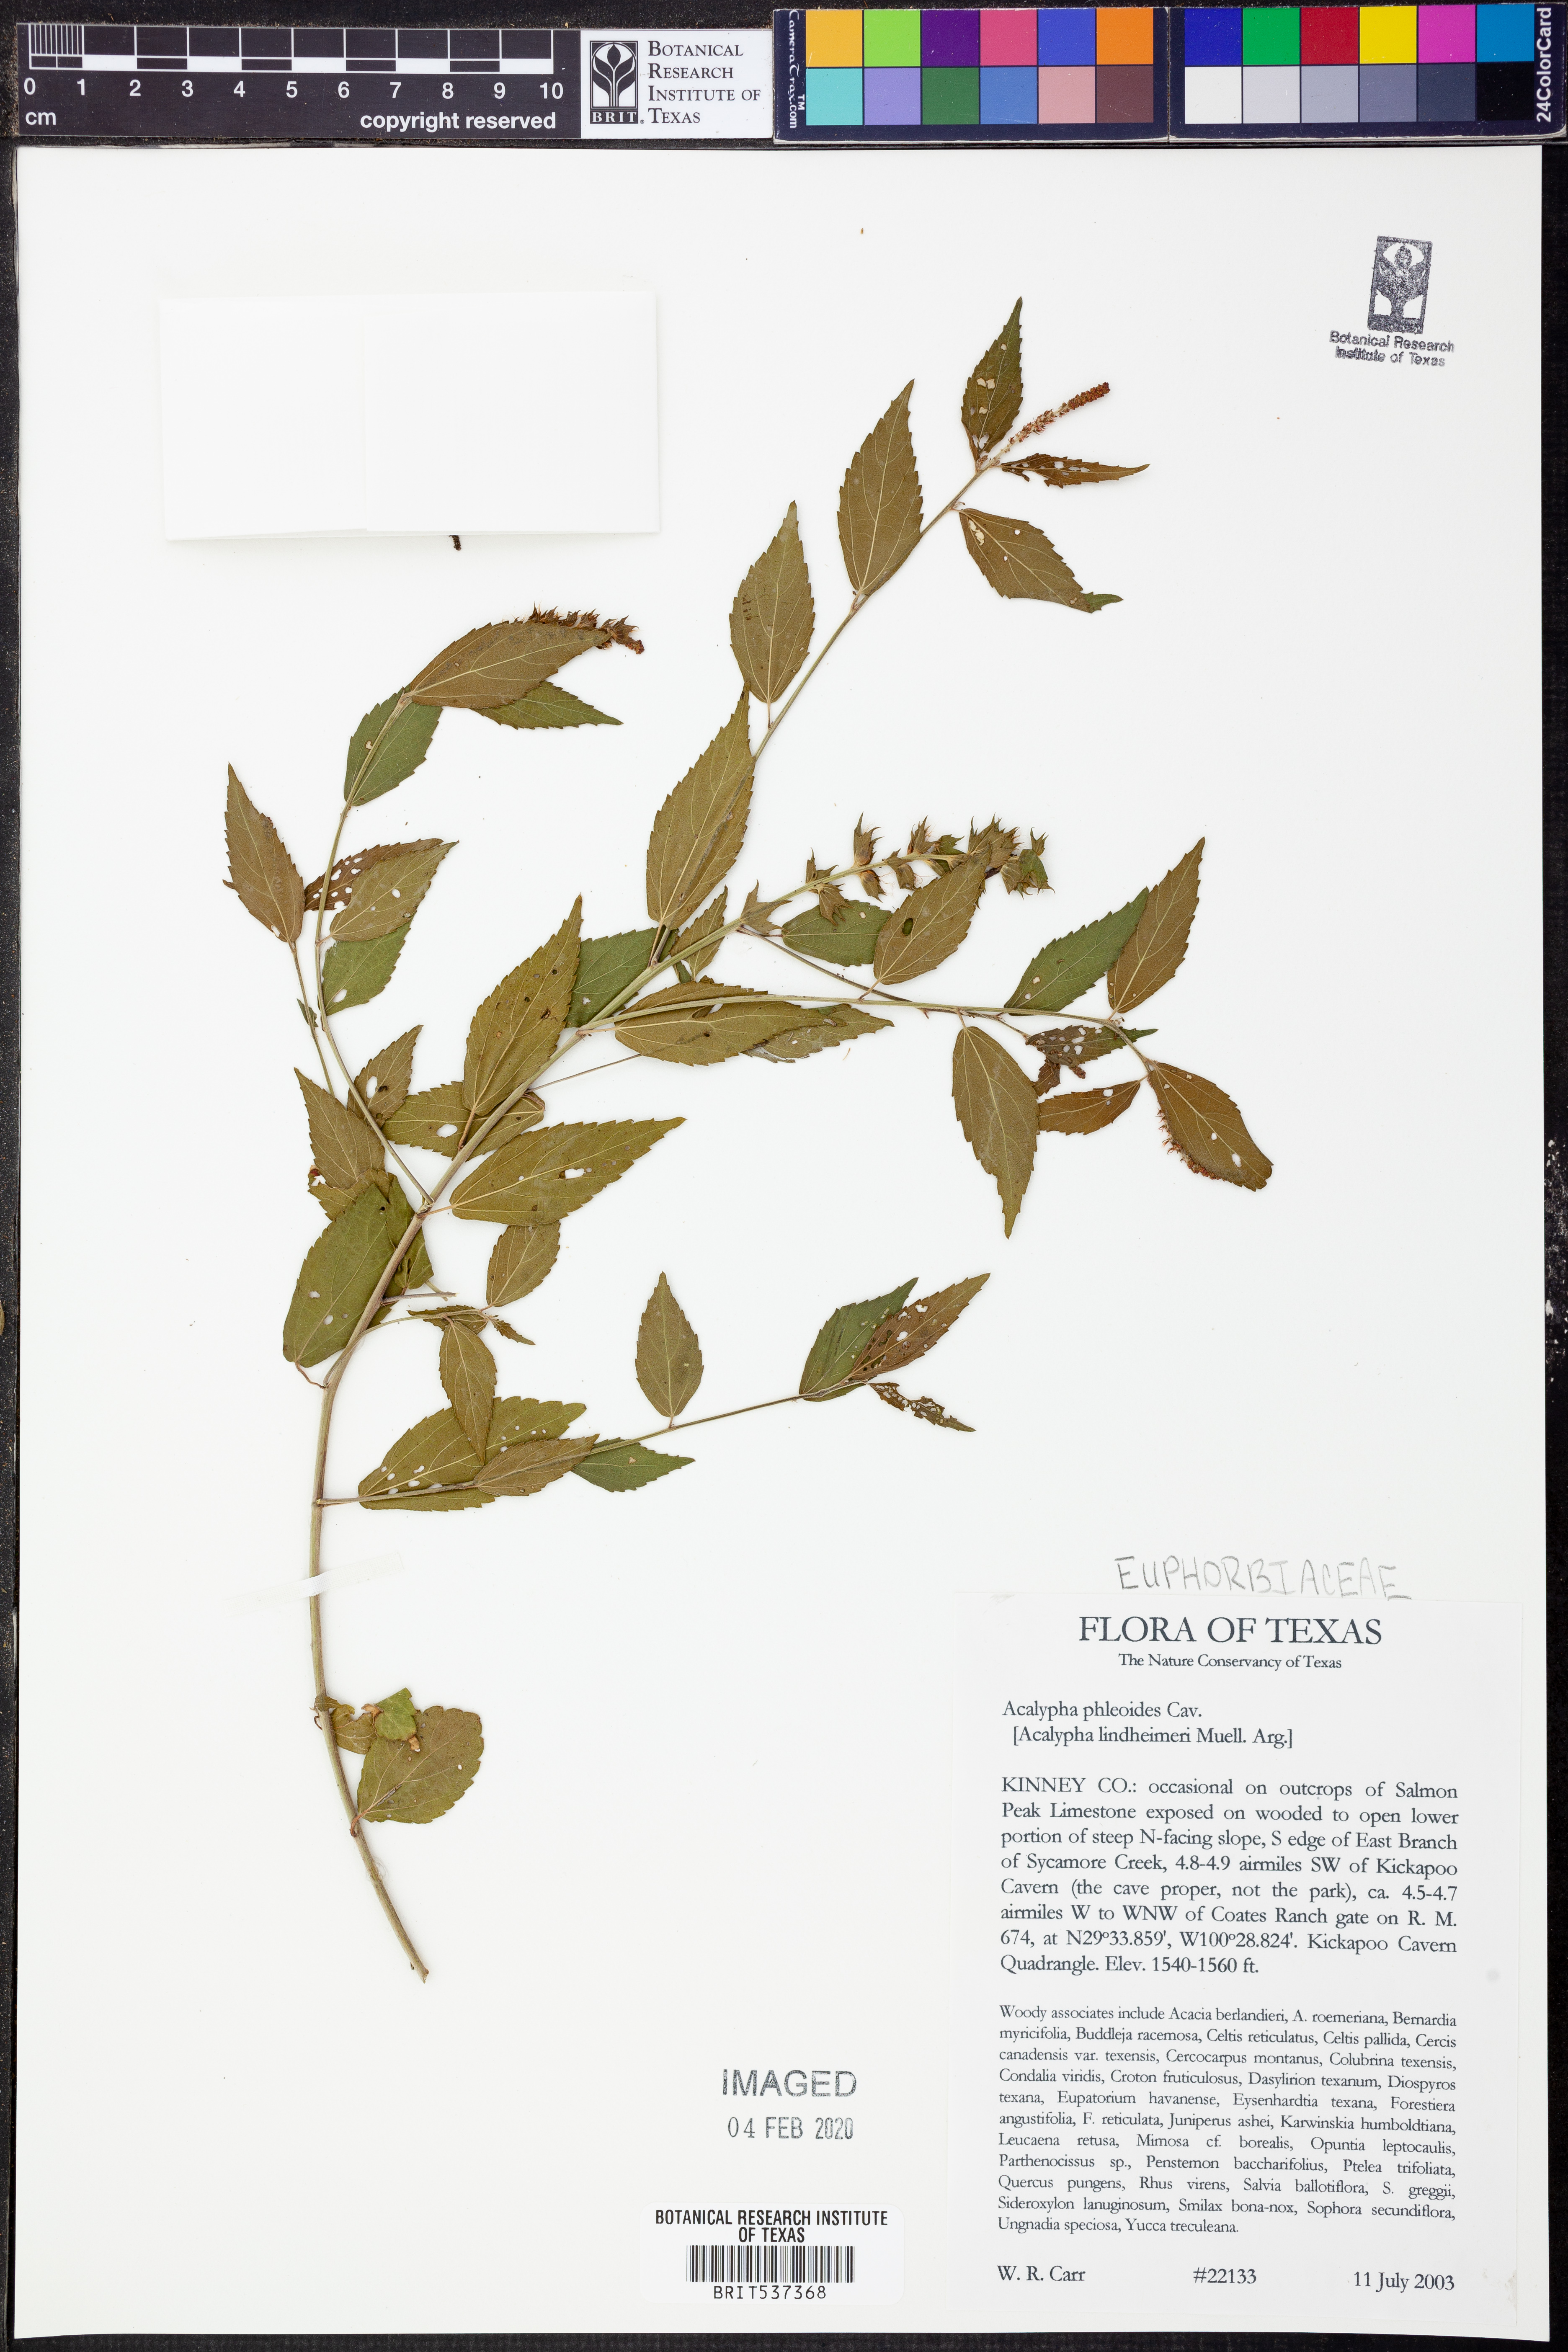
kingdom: Plantae
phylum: Tracheophyta
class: Magnoliopsida
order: Malpighiales
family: Euphorbiaceae
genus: Acalypha
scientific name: Acalypha phleoides
